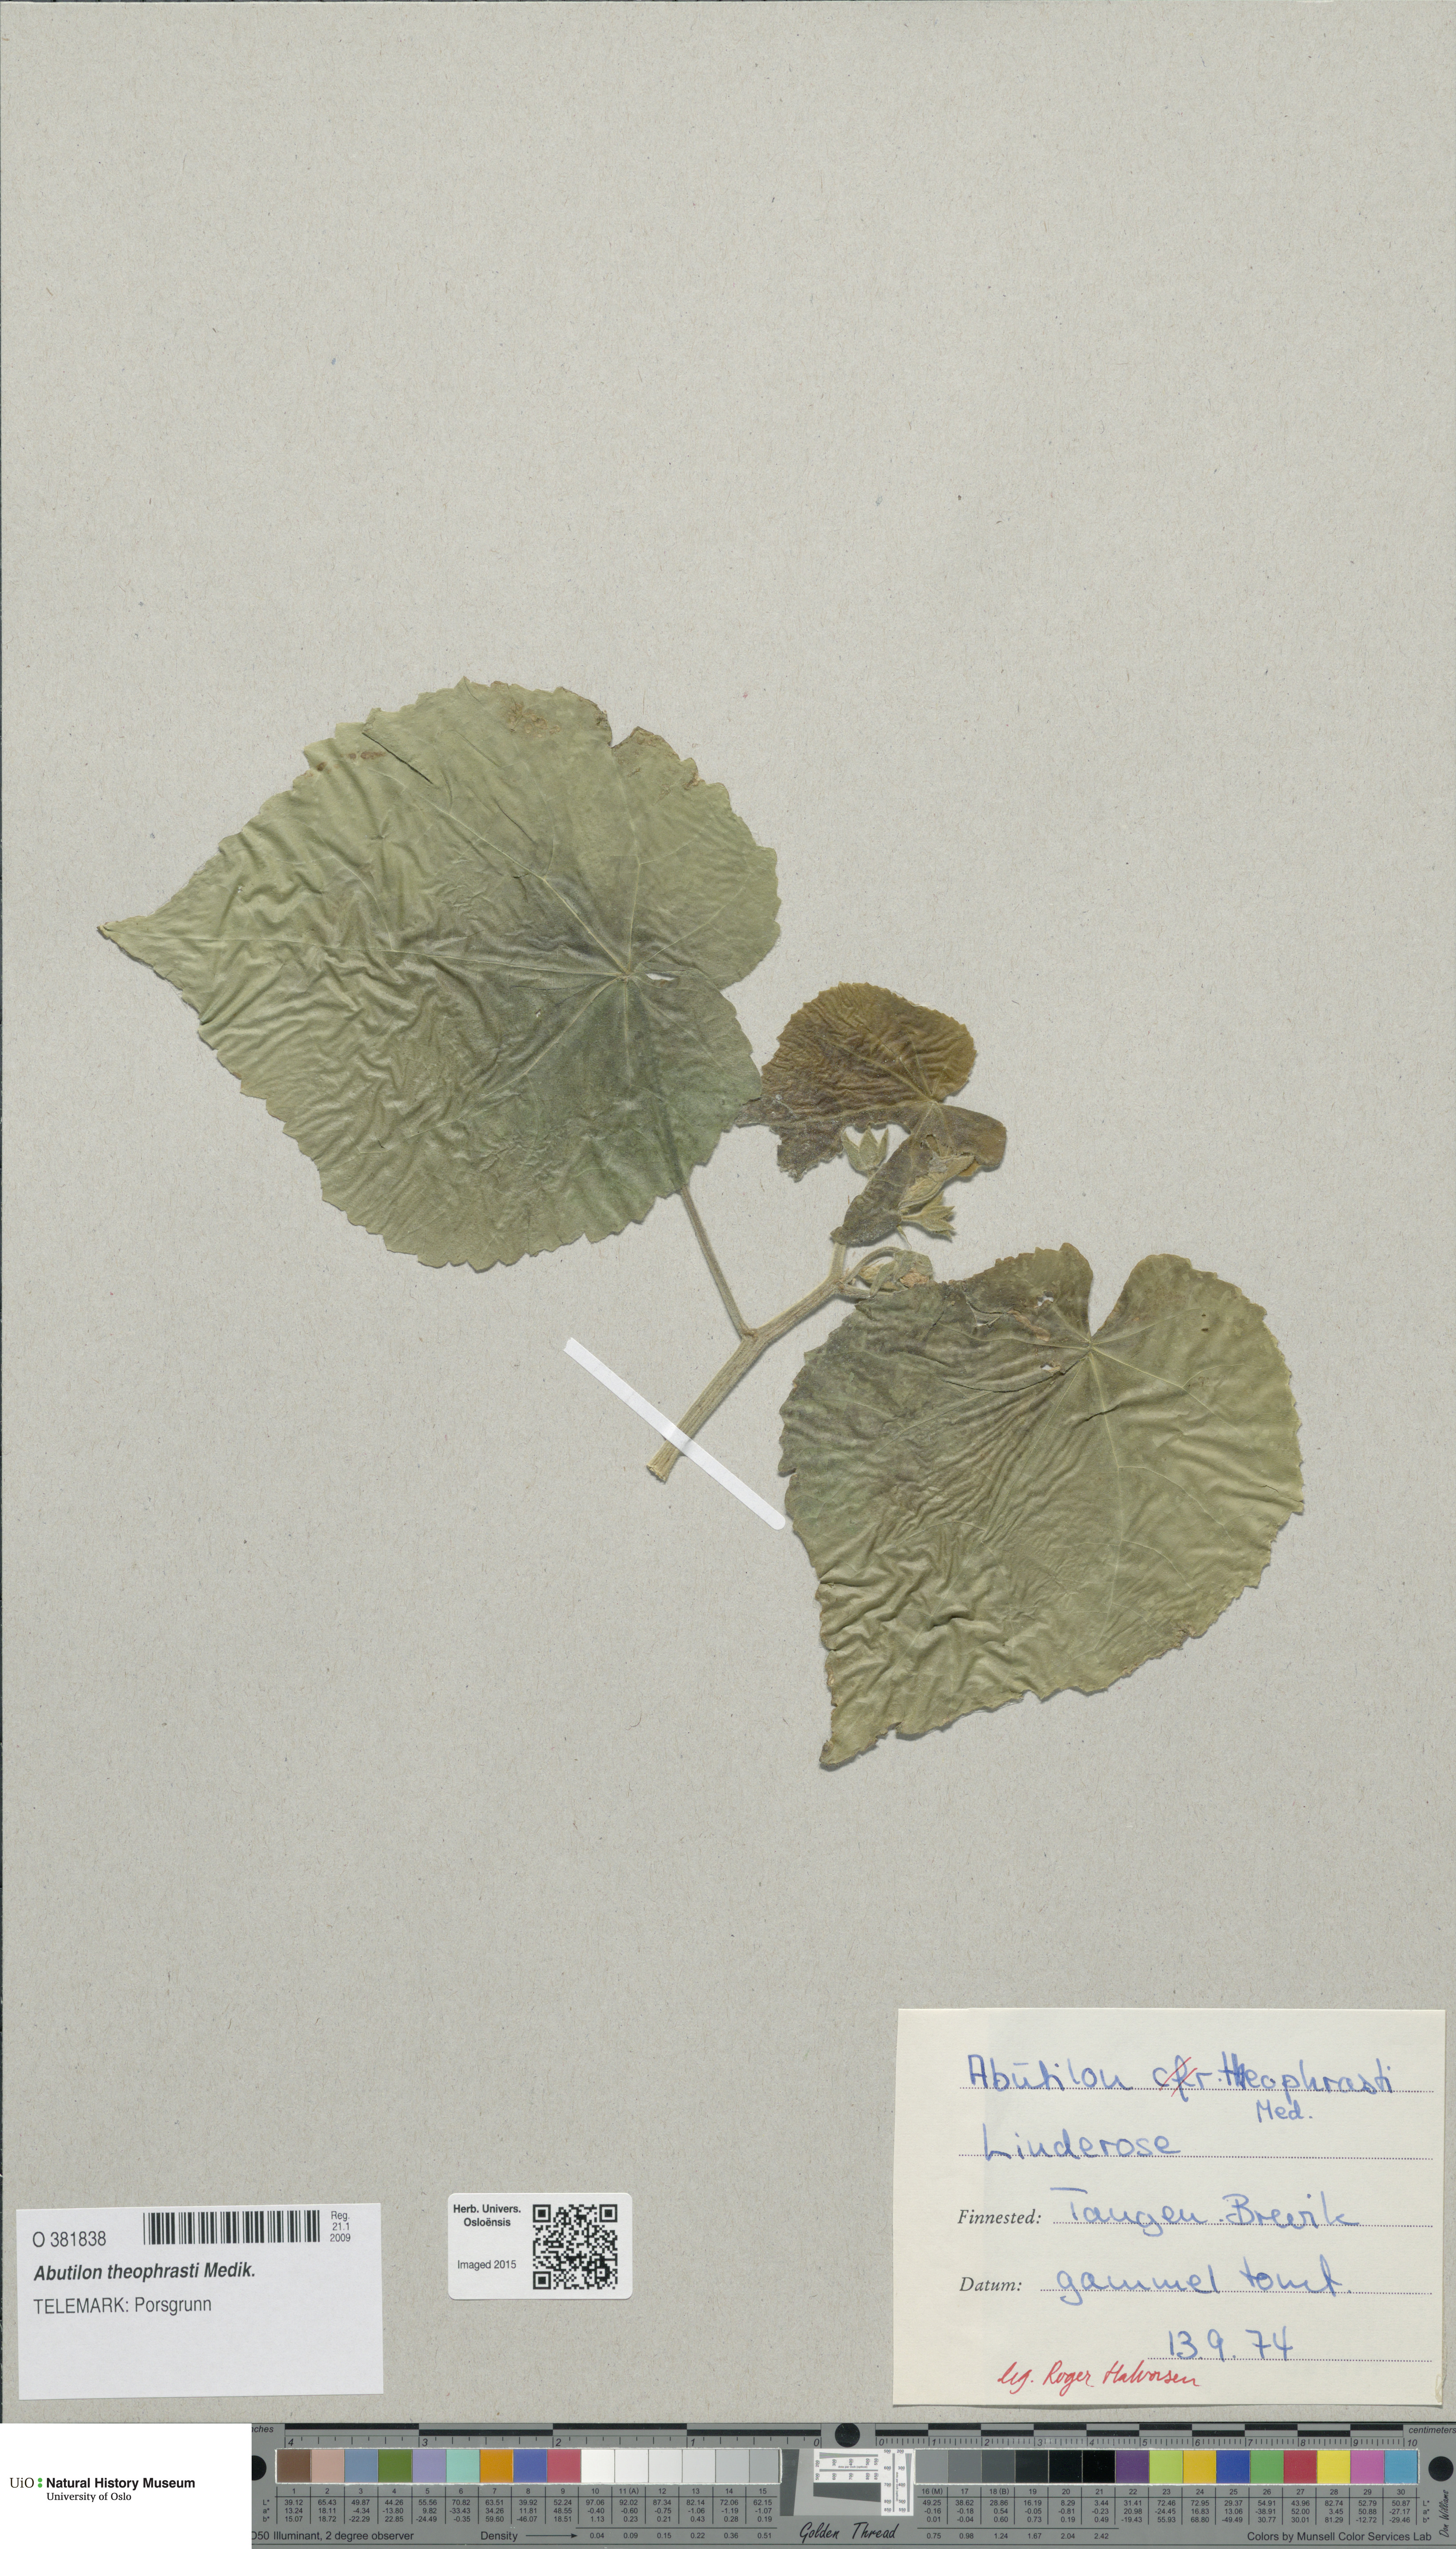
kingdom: Plantae
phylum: Tracheophyta
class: Magnoliopsida
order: Malvales
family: Malvaceae
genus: Abutilon
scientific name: Abutilon theophrasti
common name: Velvetleaf
